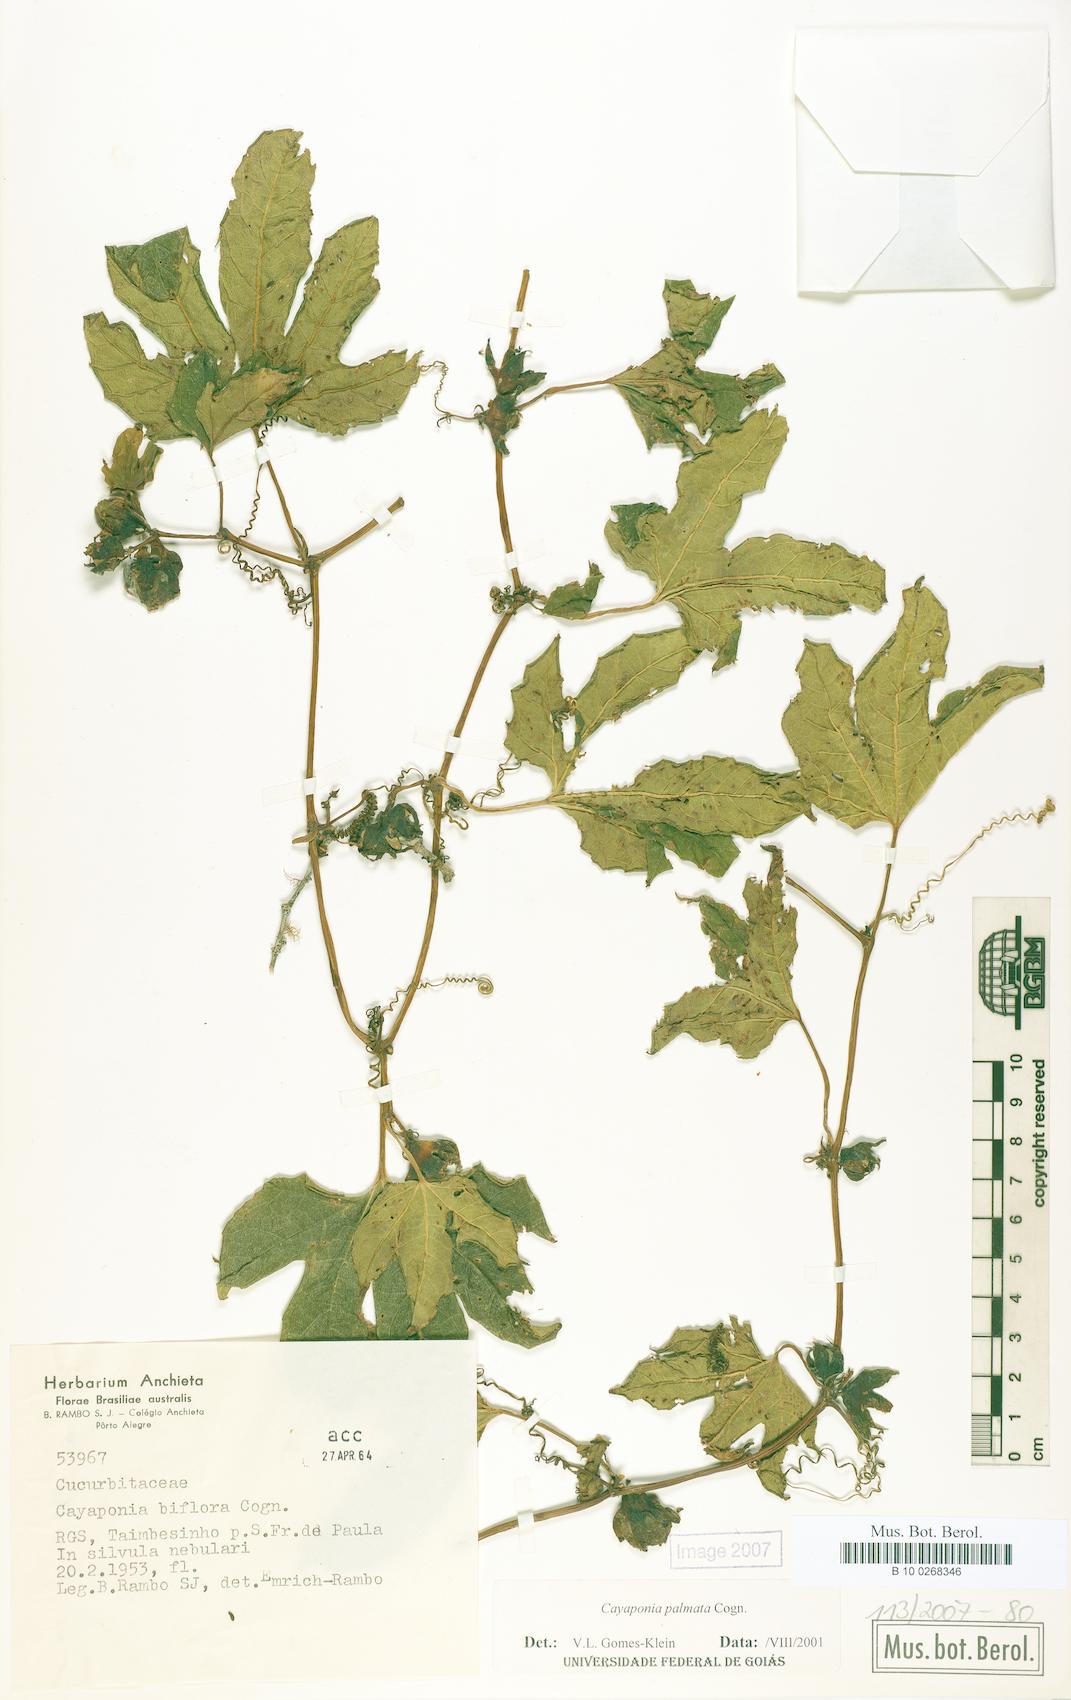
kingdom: Plantae
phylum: Tracheophyta
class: Magnoliopsida
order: Cucurbitales
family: Cucurbitaceae
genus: Cayaponia
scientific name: Cayaponia palmata
